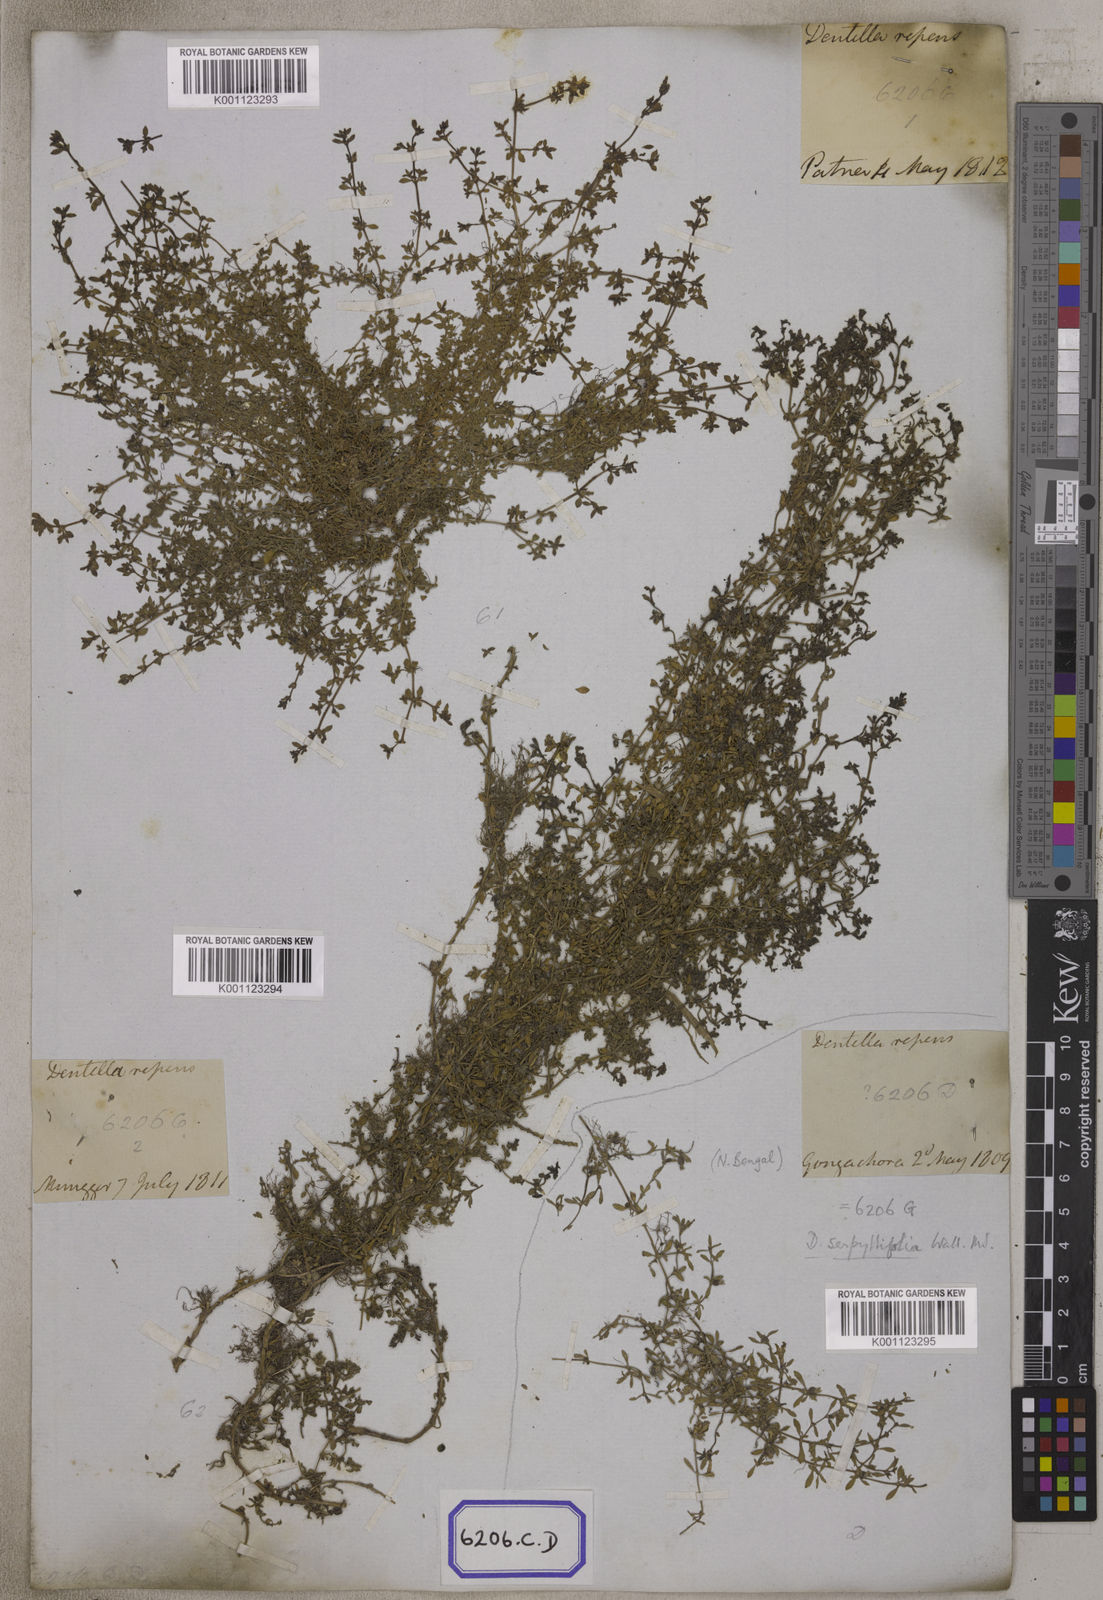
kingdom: Plantae
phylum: Tracheophyta
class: Magnoliopsida
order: Gentianales
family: Rubiaceae
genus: Dentella
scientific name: Dentella repens
